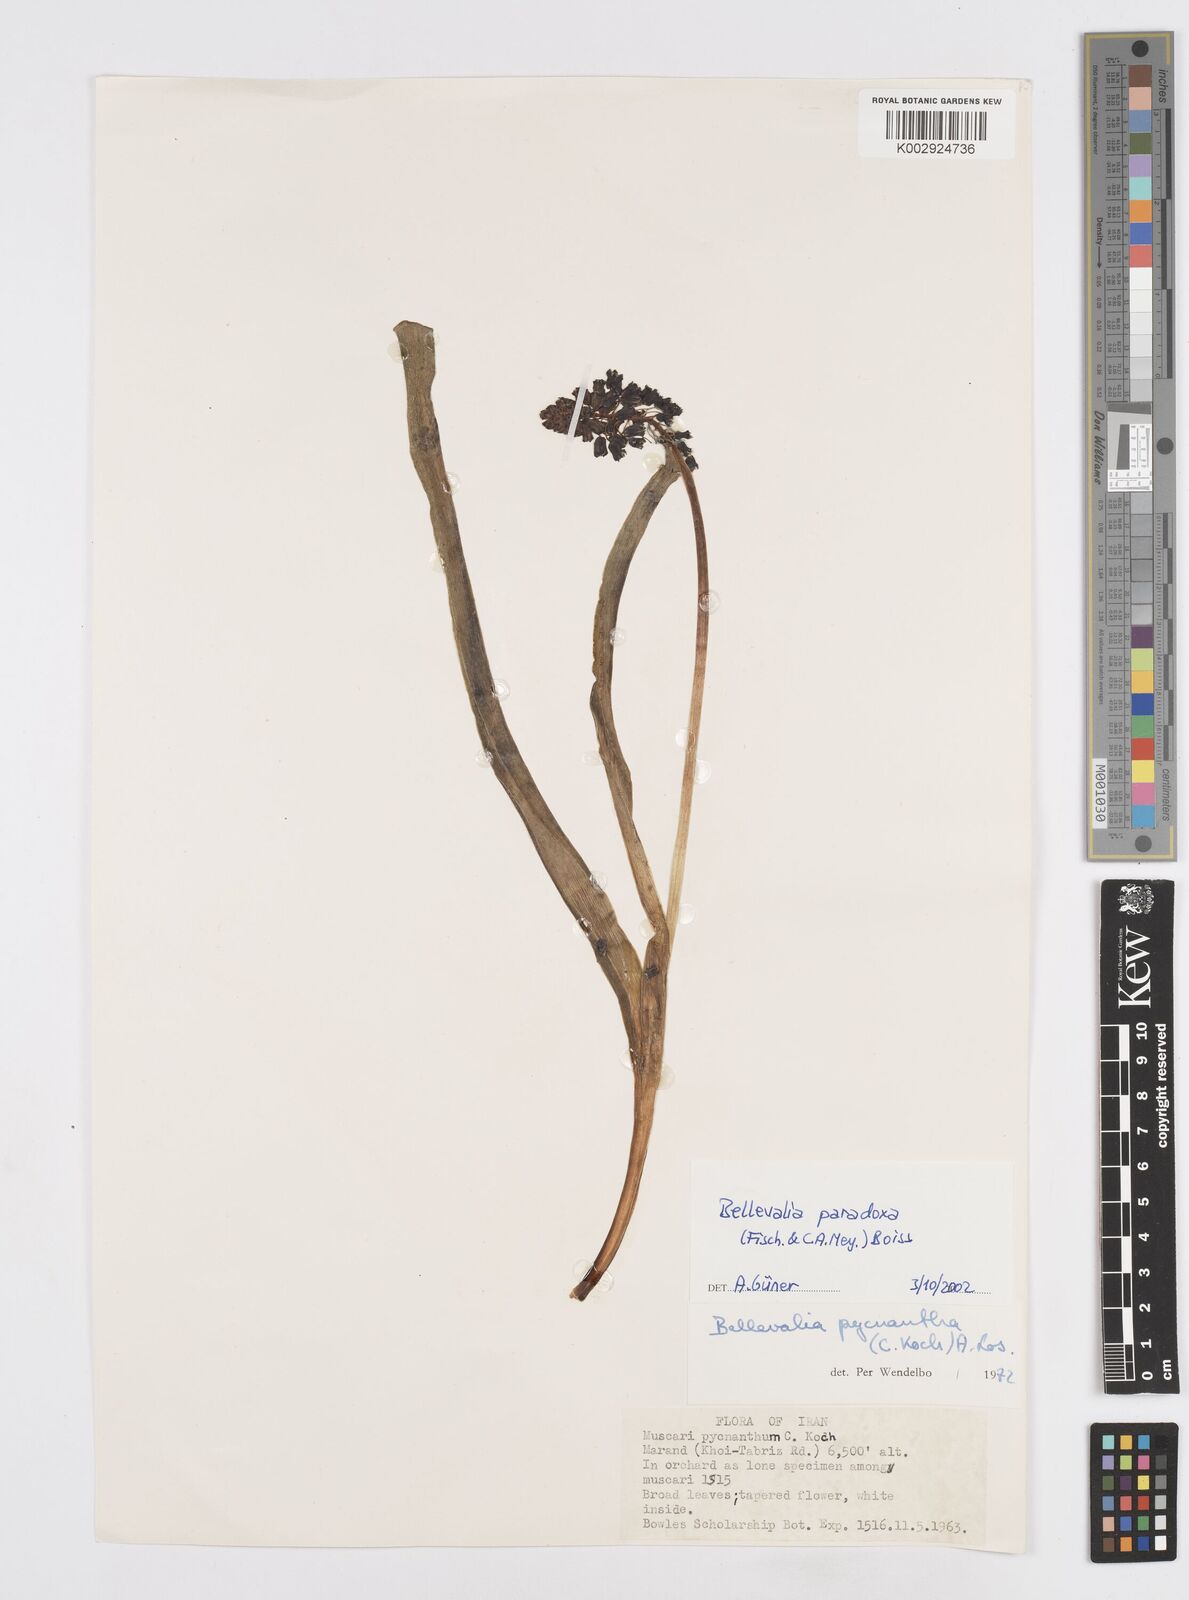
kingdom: Plantae
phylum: Tracheophyta
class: Liliopsida
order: Asparagales
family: Asparagaceae
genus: Bellevalia
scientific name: Bellevalia paradoxa
